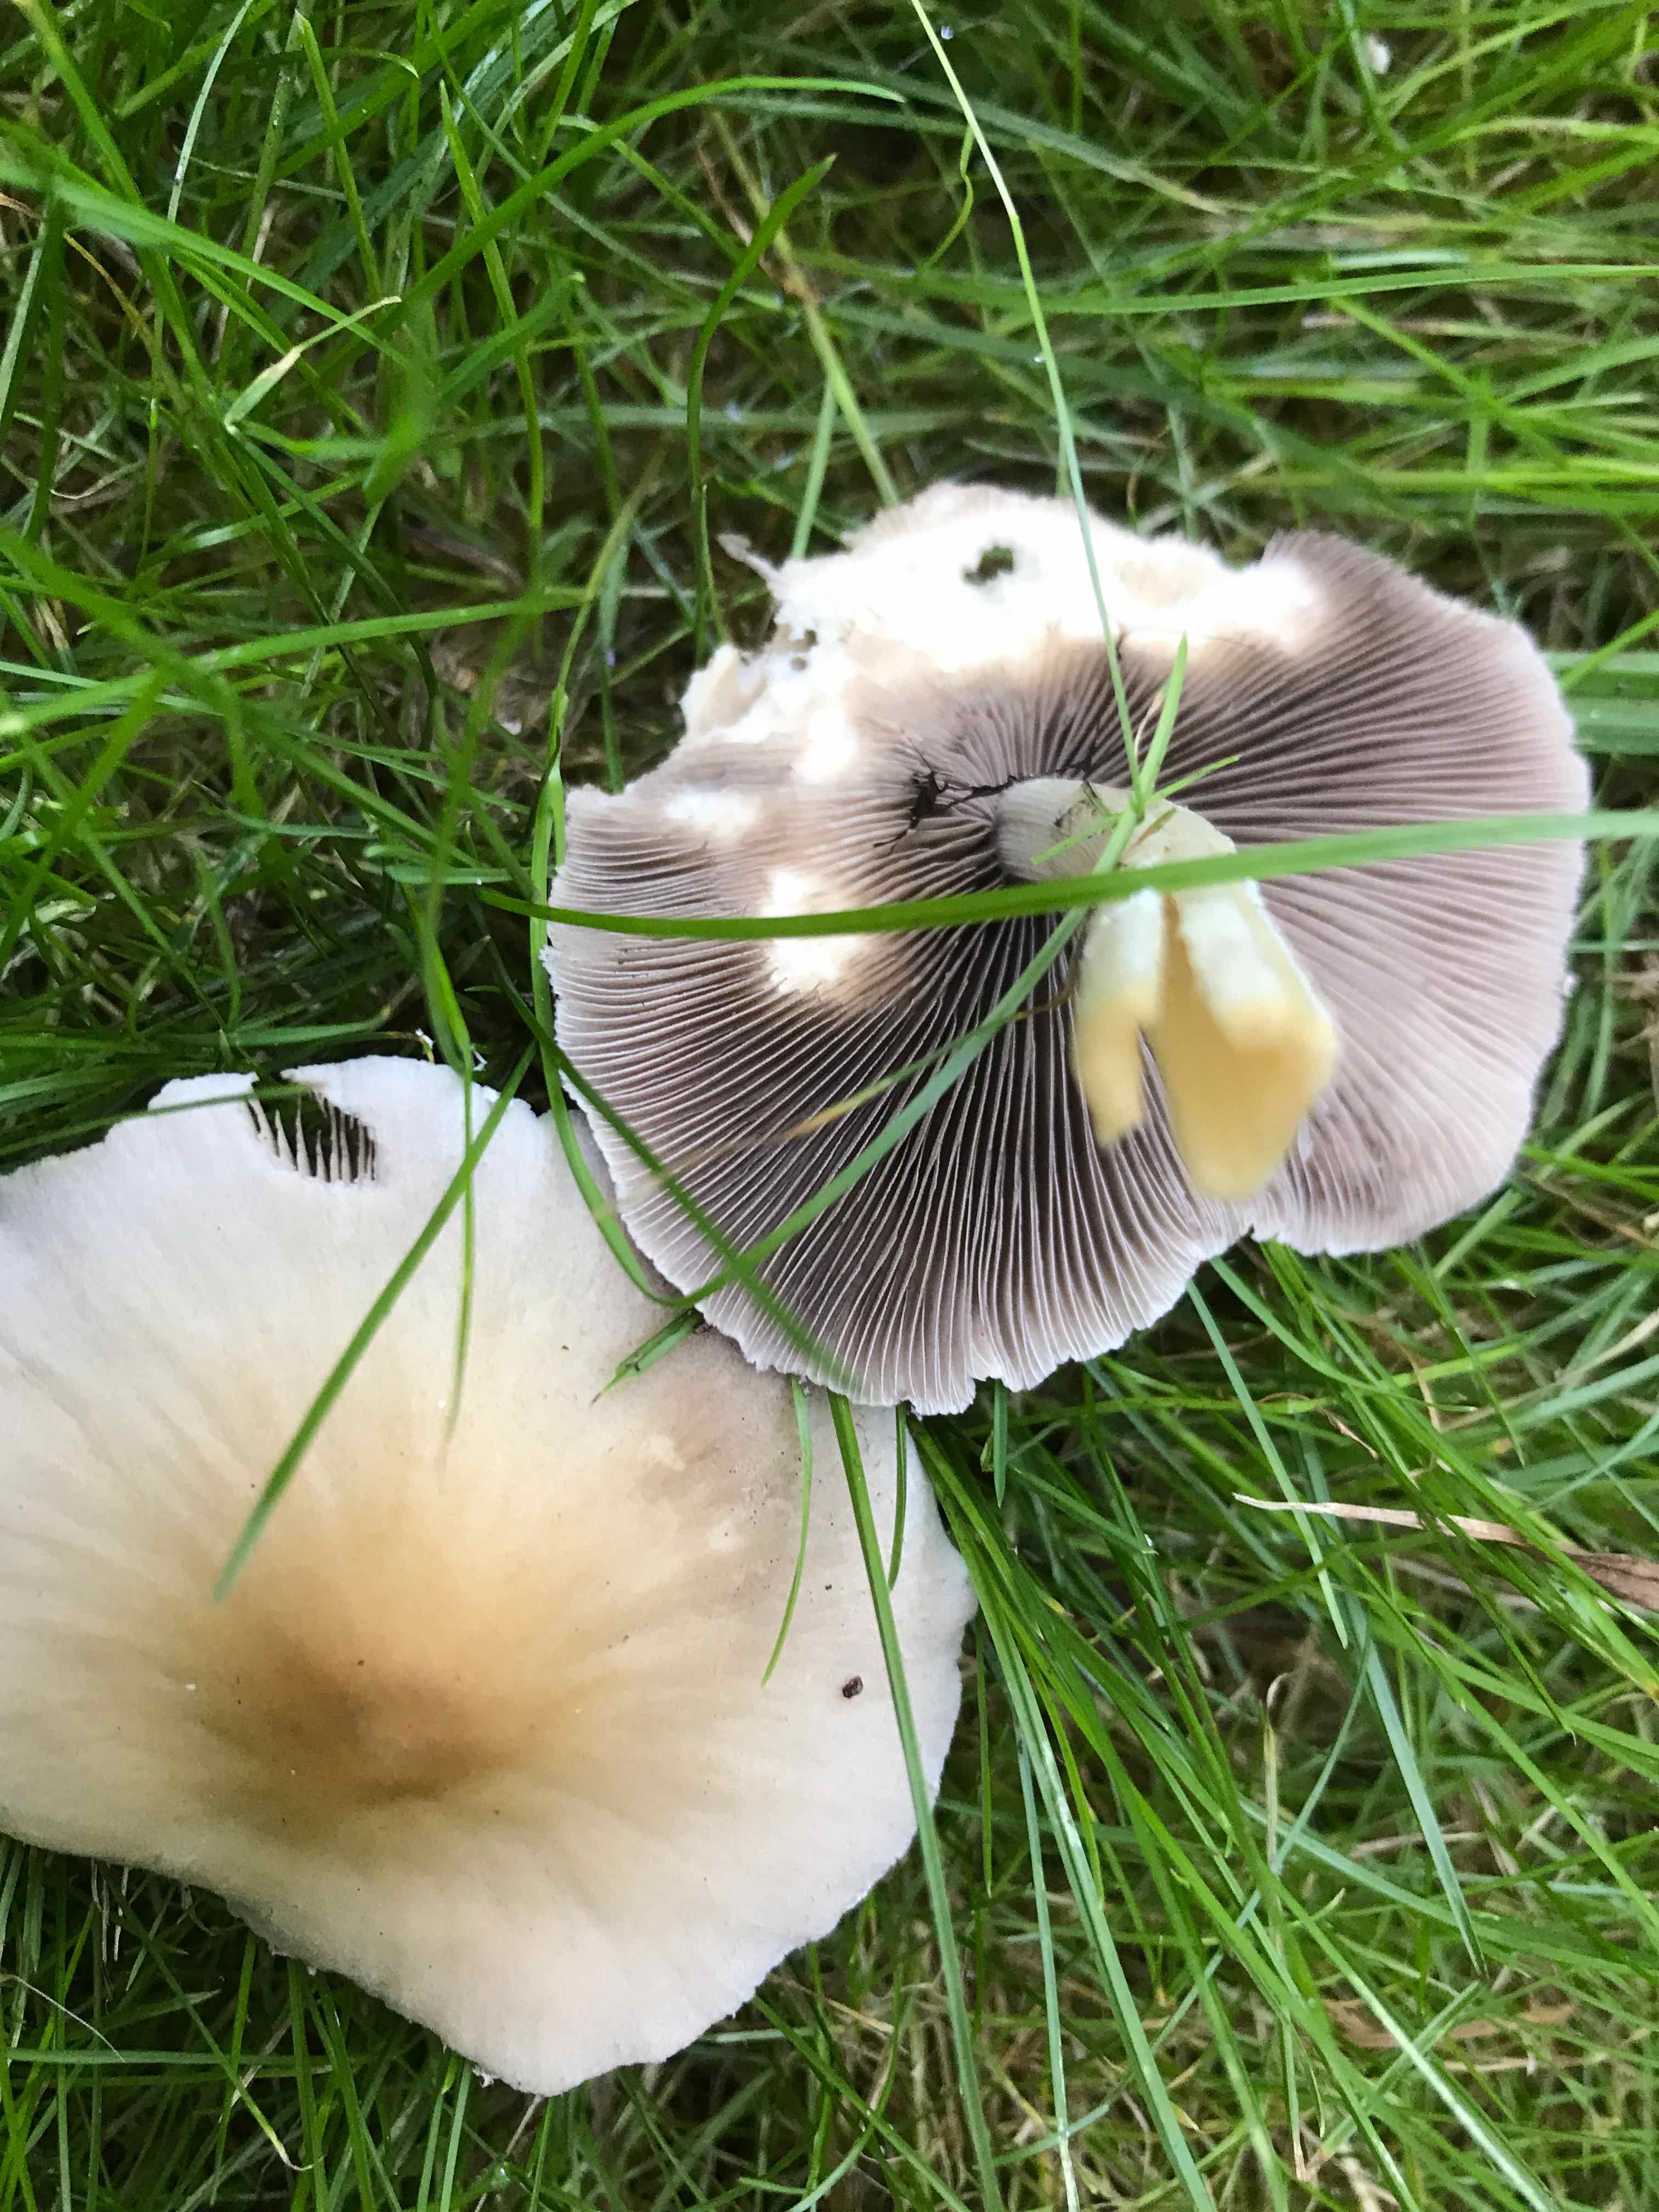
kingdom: Fungi
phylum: Basidiomycota
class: Agaricomycetes
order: Agaricales
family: Psathyrellaceae
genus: Candolleomyces
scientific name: Candolleomyces candolleanus
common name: Candolles mørkhat
